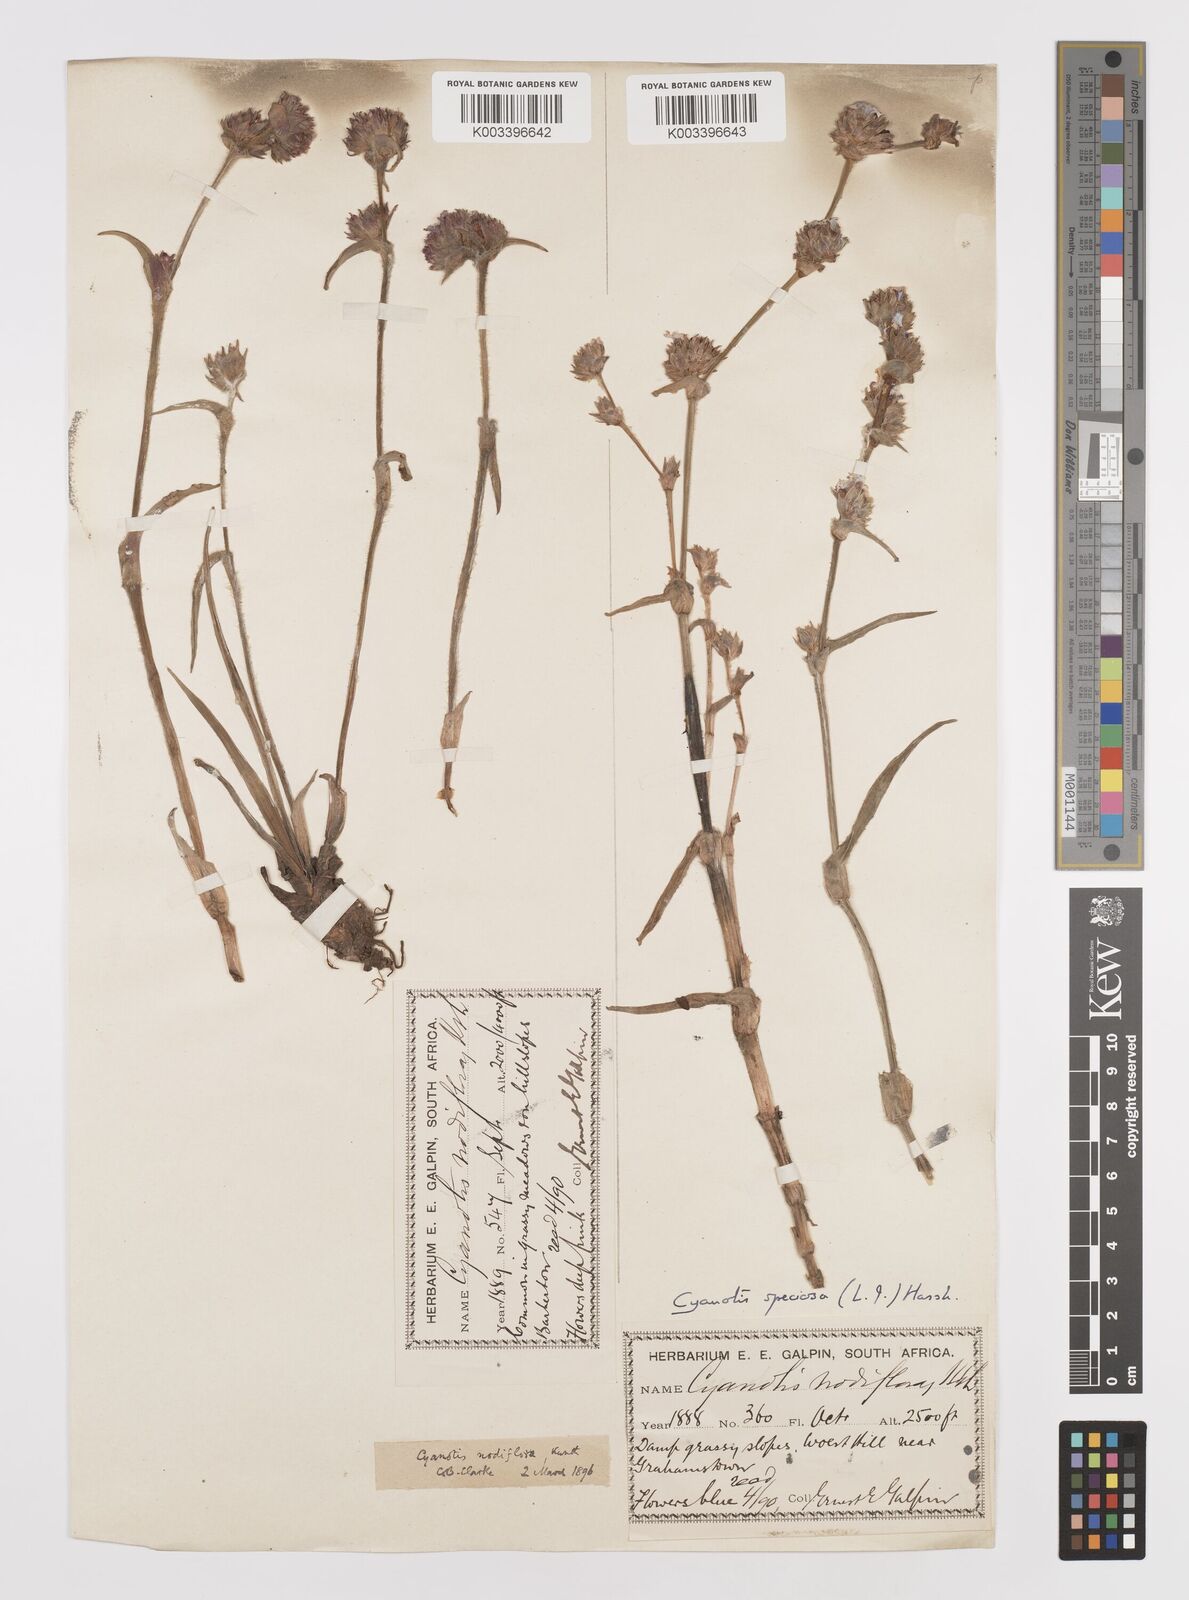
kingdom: Plantae
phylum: Tracheophyta
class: Liliopsida
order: Commelinales
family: Commelinaceae
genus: Cyanotis
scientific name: Cyanotis speciosa
